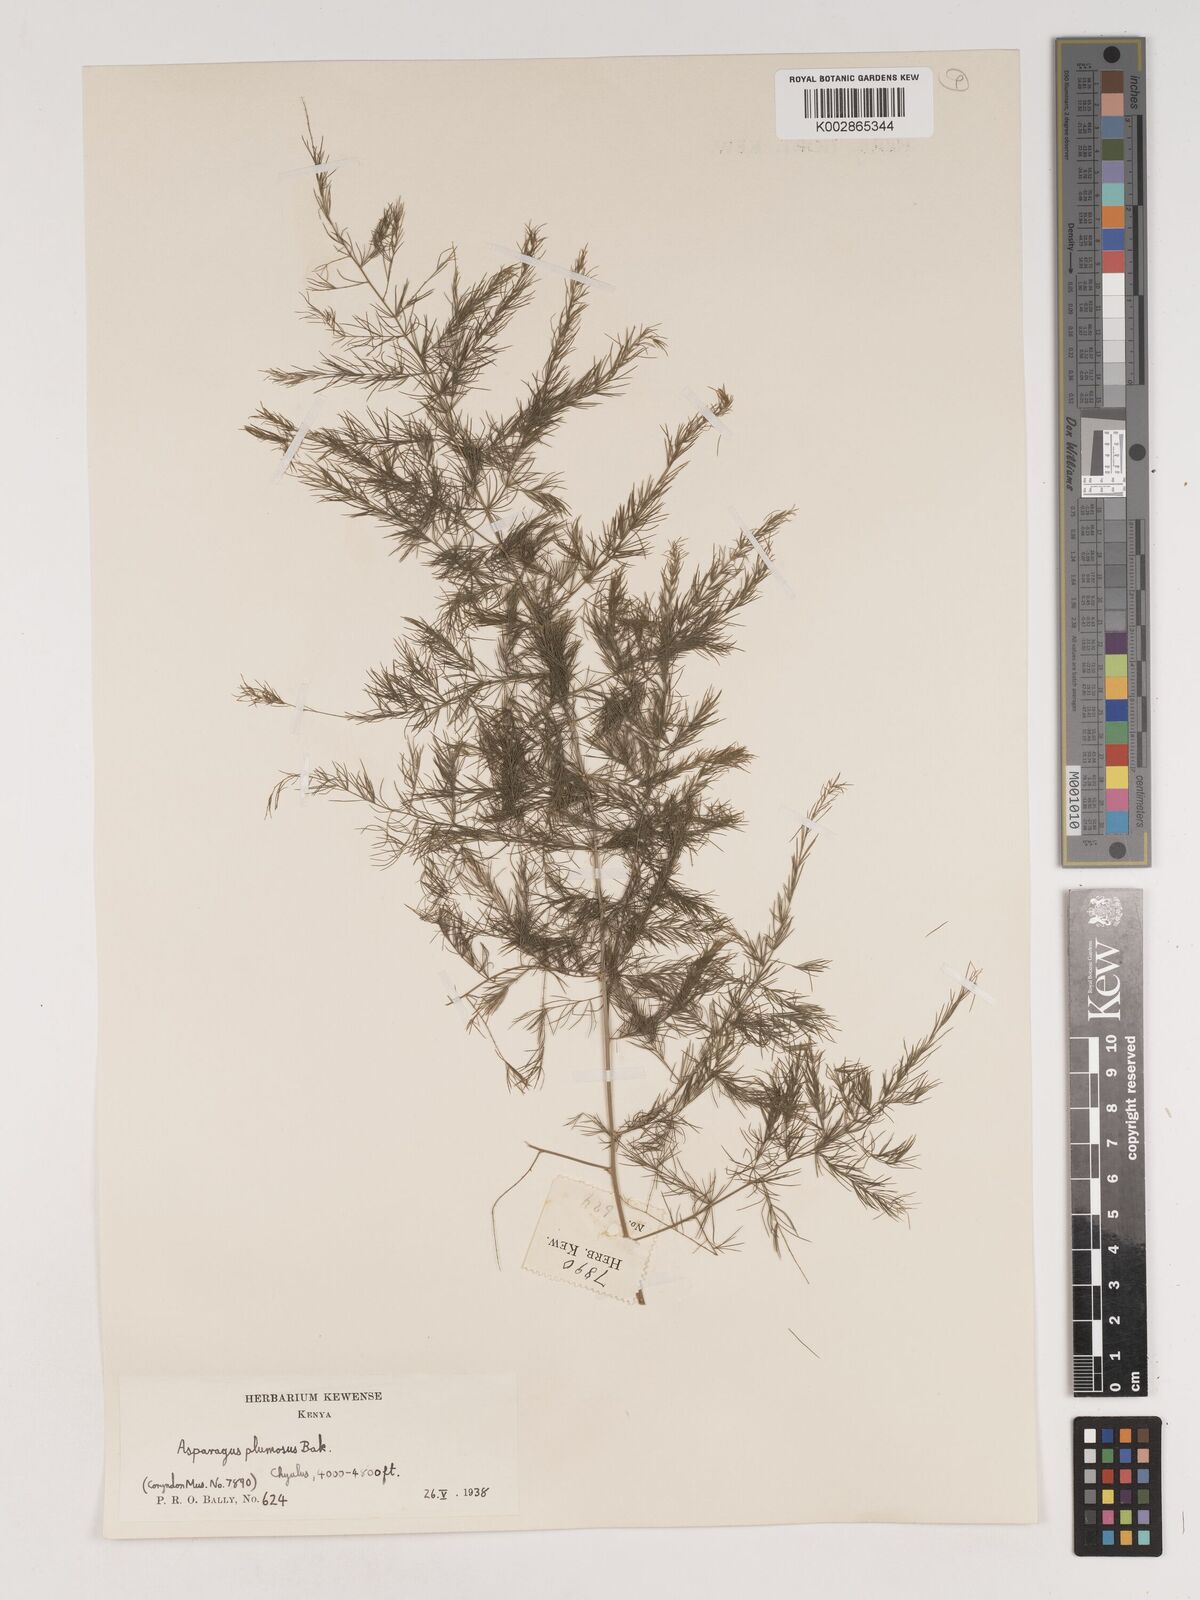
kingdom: Plantae
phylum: Tracheophyta
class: Liliopsida
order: Asparagales
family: Asparagaceae
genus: Asparagus
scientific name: Asparagus
